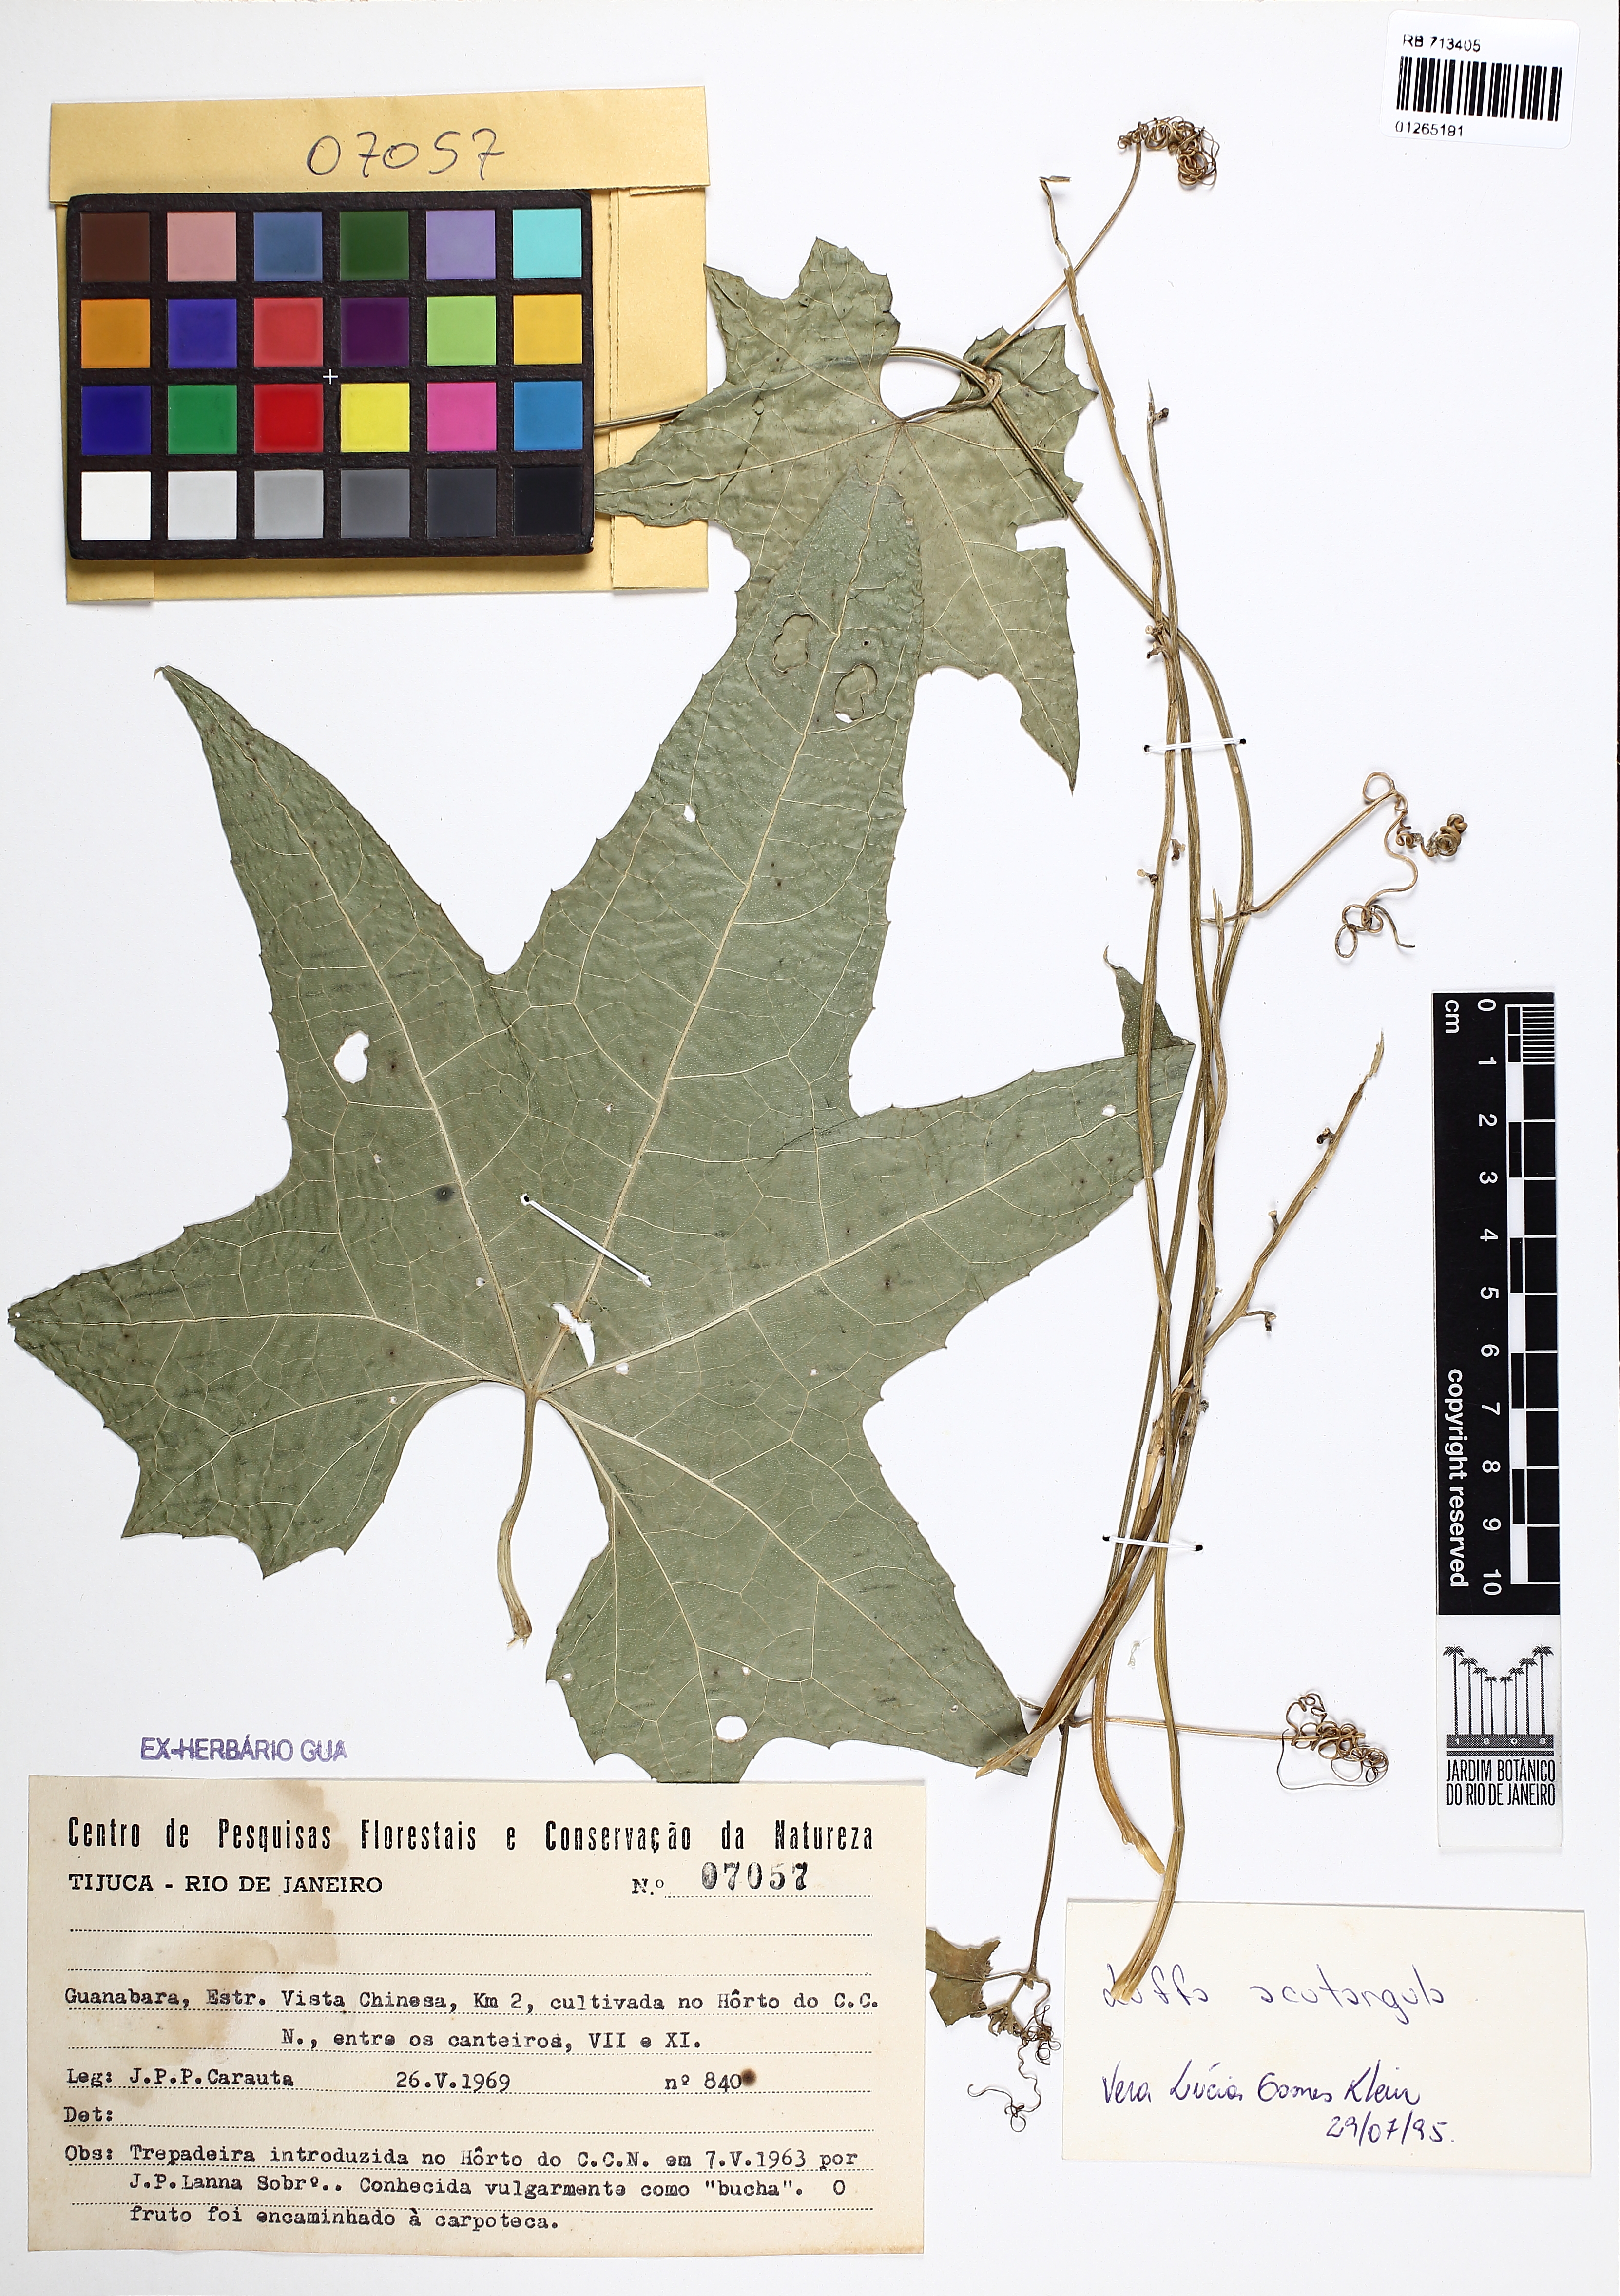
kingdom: Plantae
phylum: Tracheophyta
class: Magnoliopsida
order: Cucurbitales
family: Cucurbitaceae
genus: Luffa
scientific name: Luffa acutangula
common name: Sinkwa towelsponge
